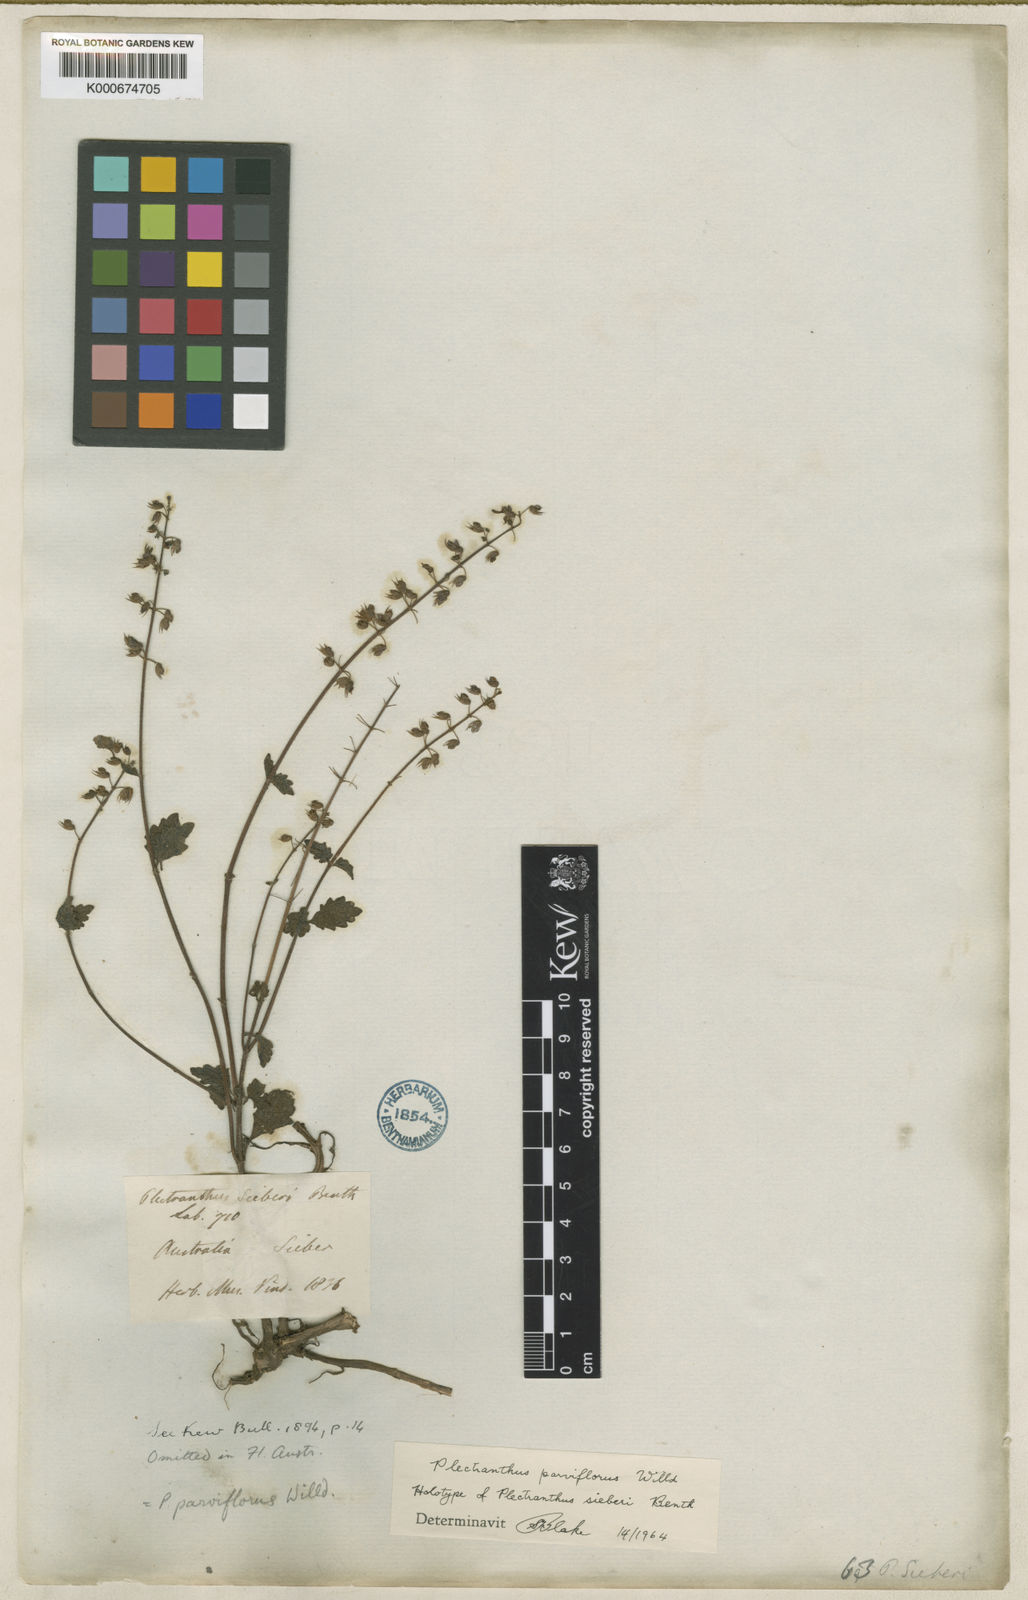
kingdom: Plantae
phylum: Tracheophyta
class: Magnoliopsida
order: Lamiales
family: Lamiaceae
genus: Coleus
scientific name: Coleus australis
